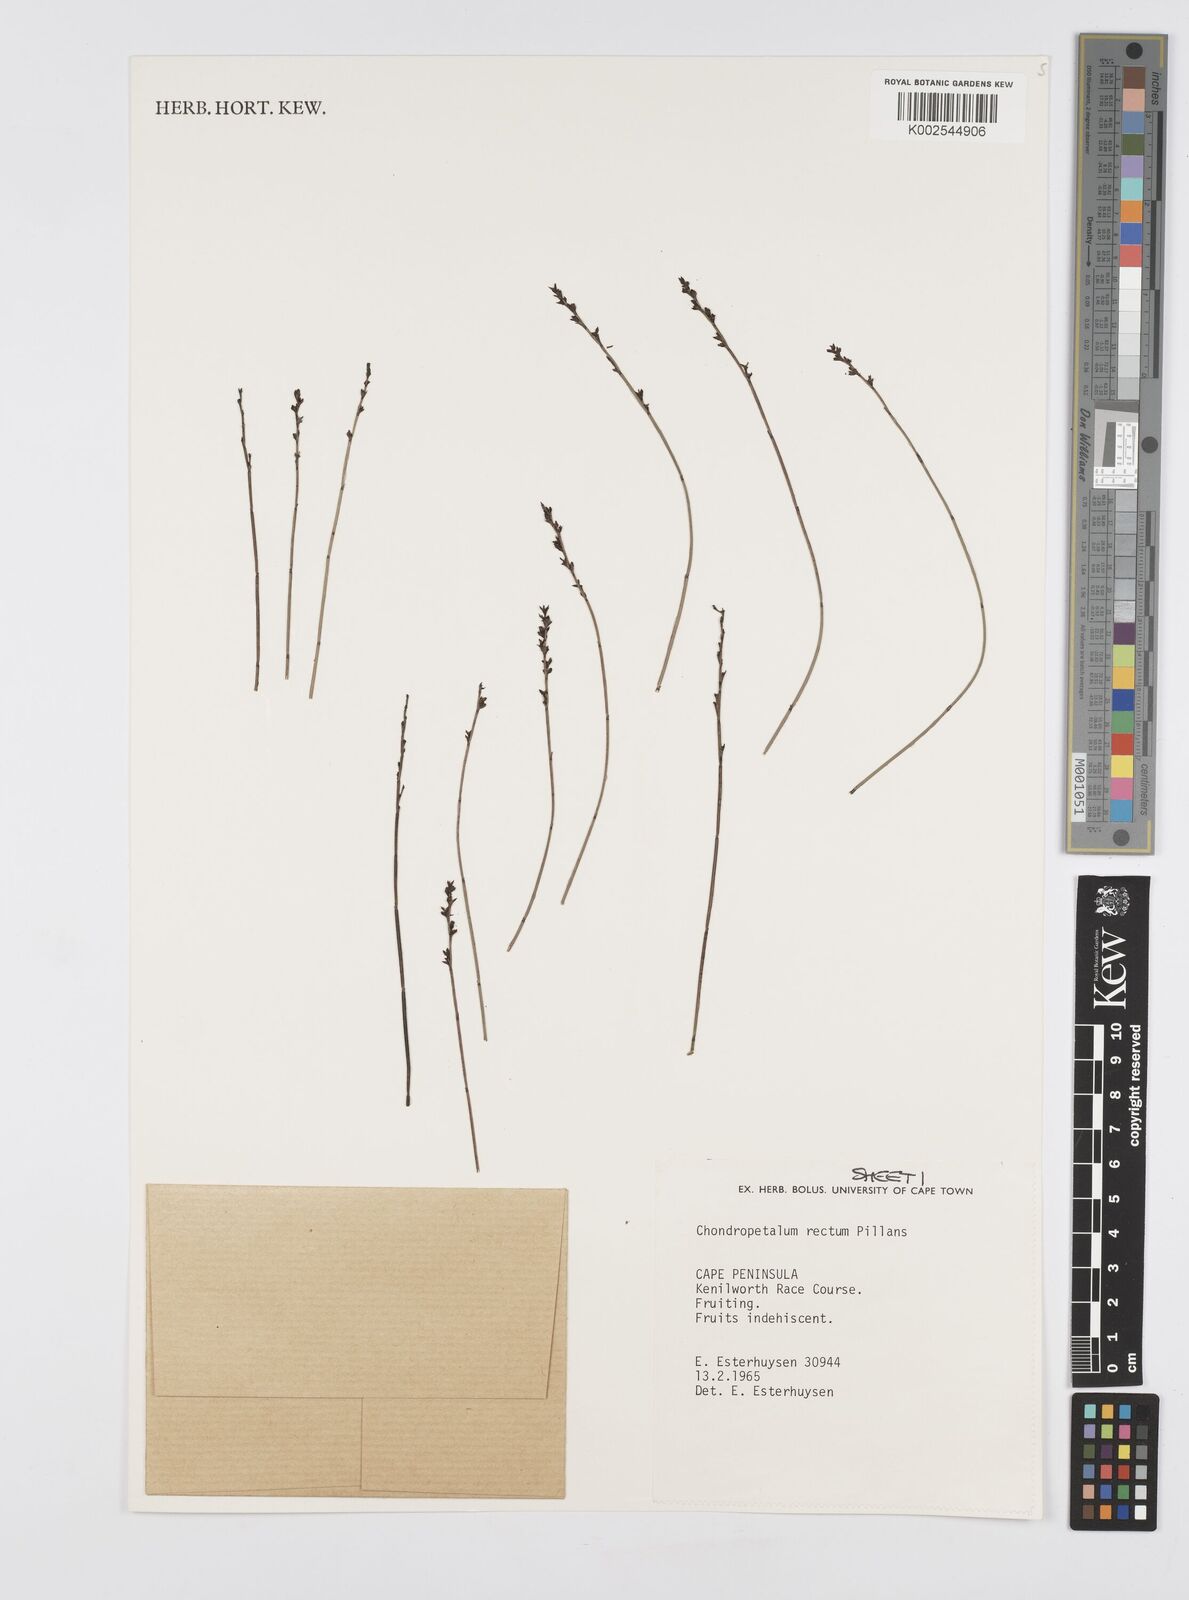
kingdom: Plantae
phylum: Tracheophyta
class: Liliopsida
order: Poales
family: Restionaceae
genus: Elegia
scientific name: Elegia recta
